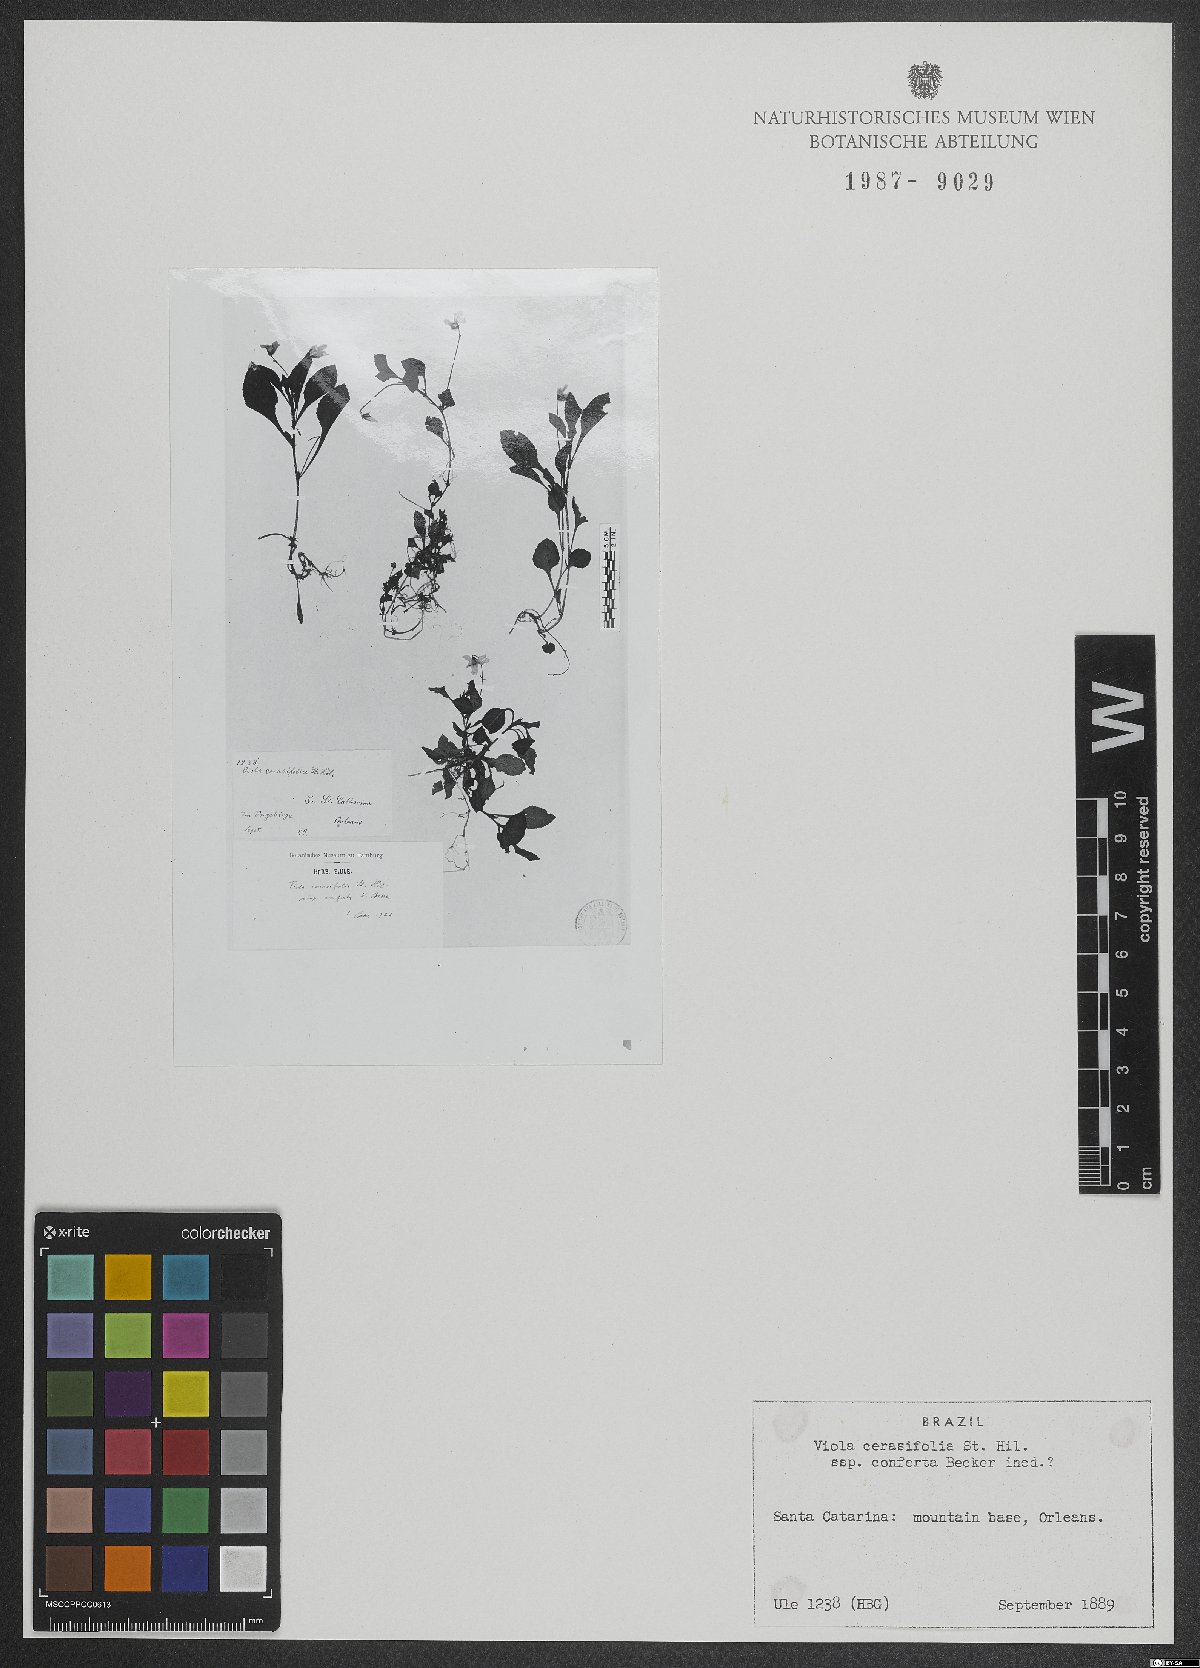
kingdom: Plantae
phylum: Tracheophyta
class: Magnoliopsida
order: Malpighiales
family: Violaceae
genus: Viola
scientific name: Viola cerasifolia
